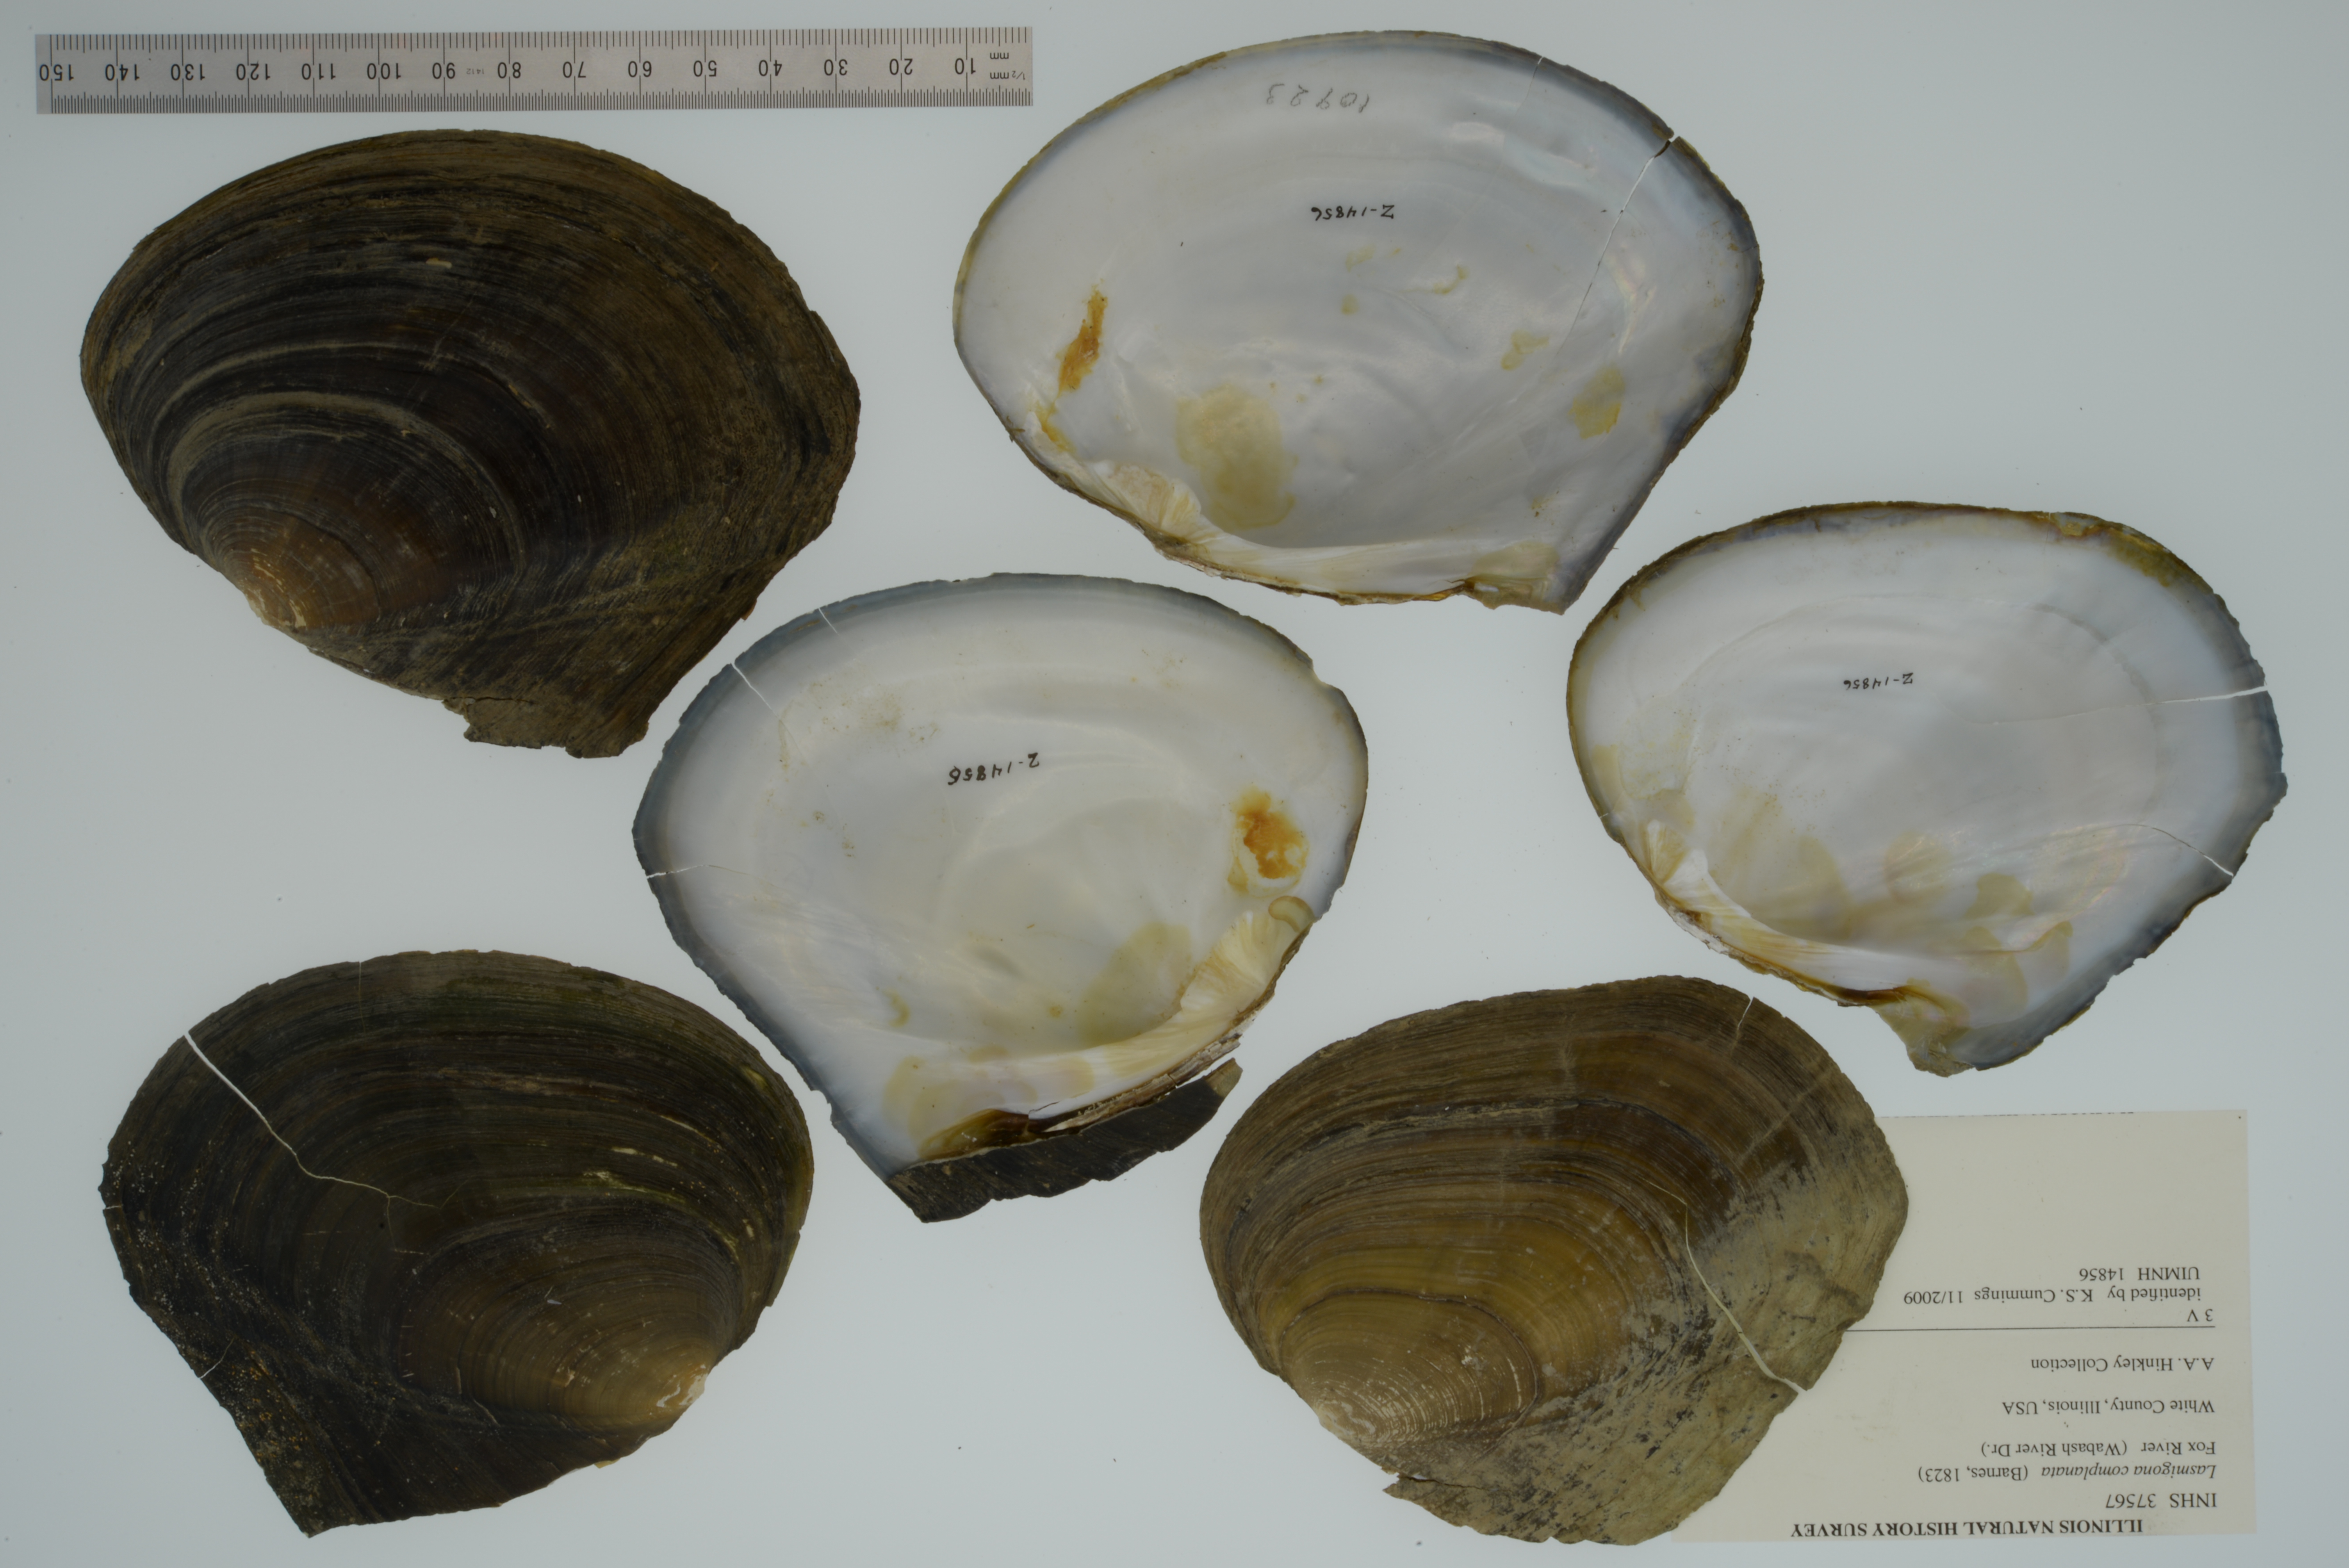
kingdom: Animalia
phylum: Mollusca
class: Bivalvia
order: Unionida
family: Unionidae
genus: Lasmigona
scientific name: Lasmigona complanata
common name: White heelsplitter
